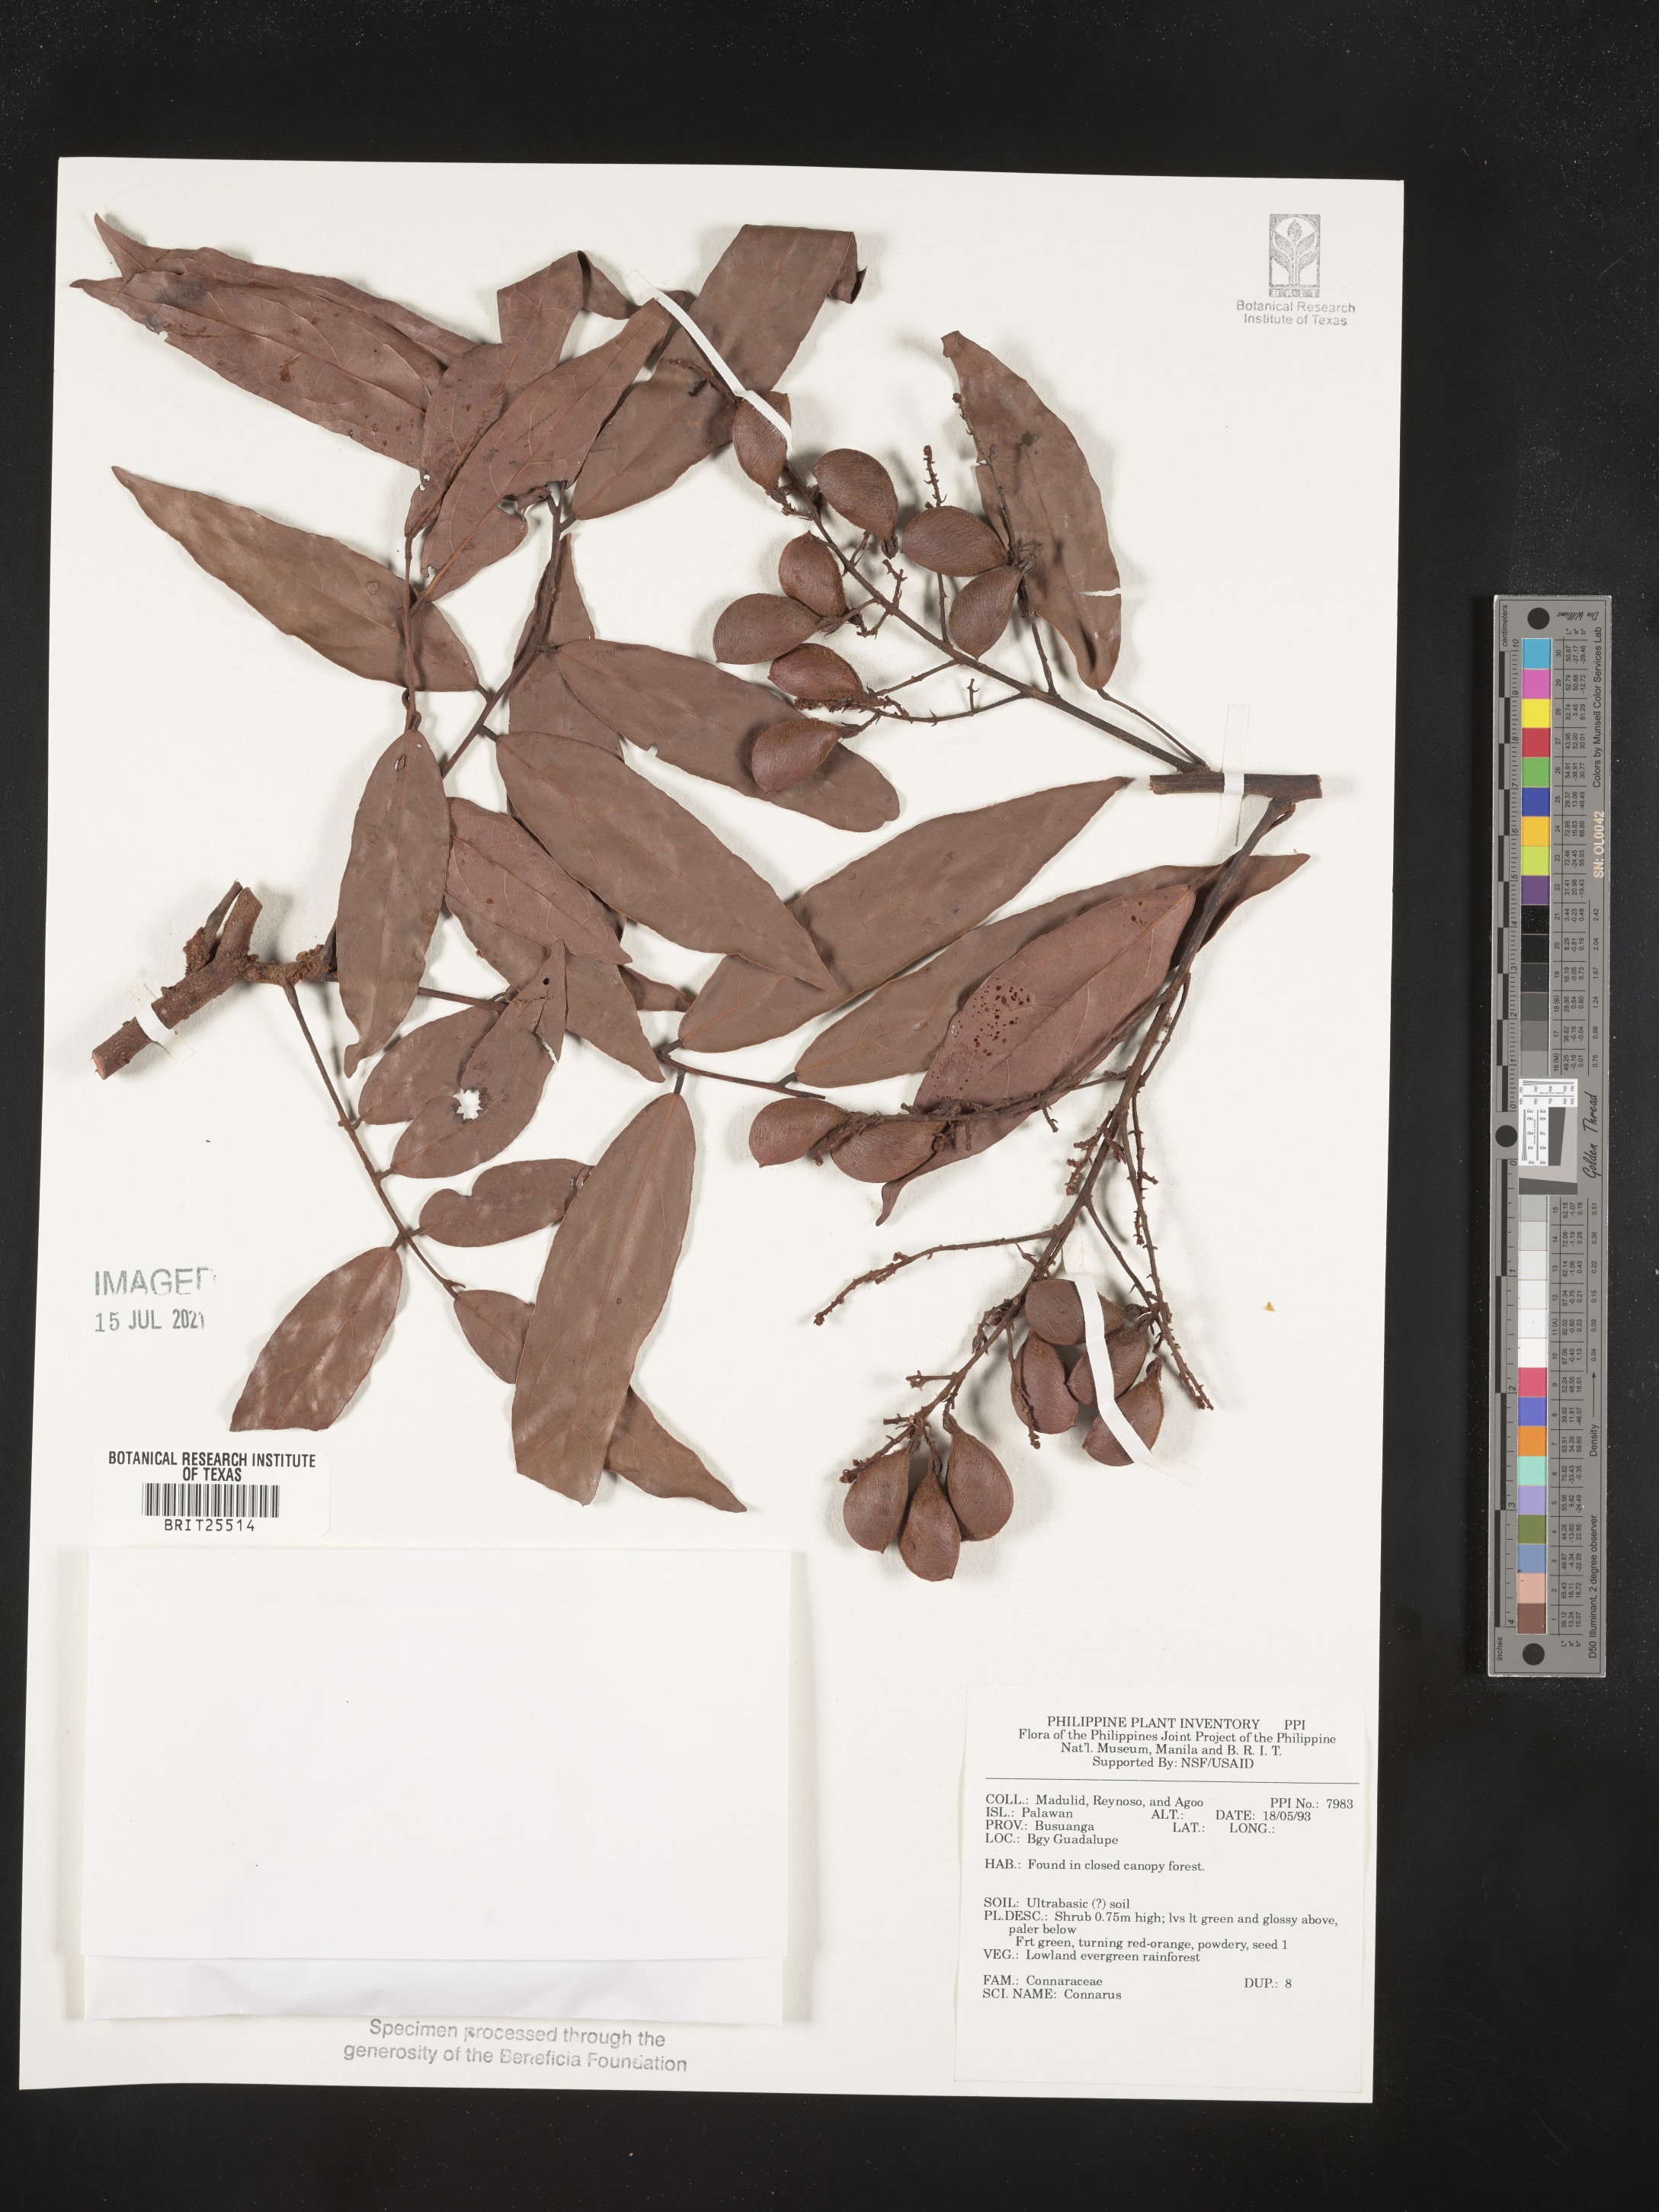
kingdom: Plantae
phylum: Tracheophyta
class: Magnoliopsida
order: Oxalidales
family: Connaraceae
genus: Connarus
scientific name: Connarus
